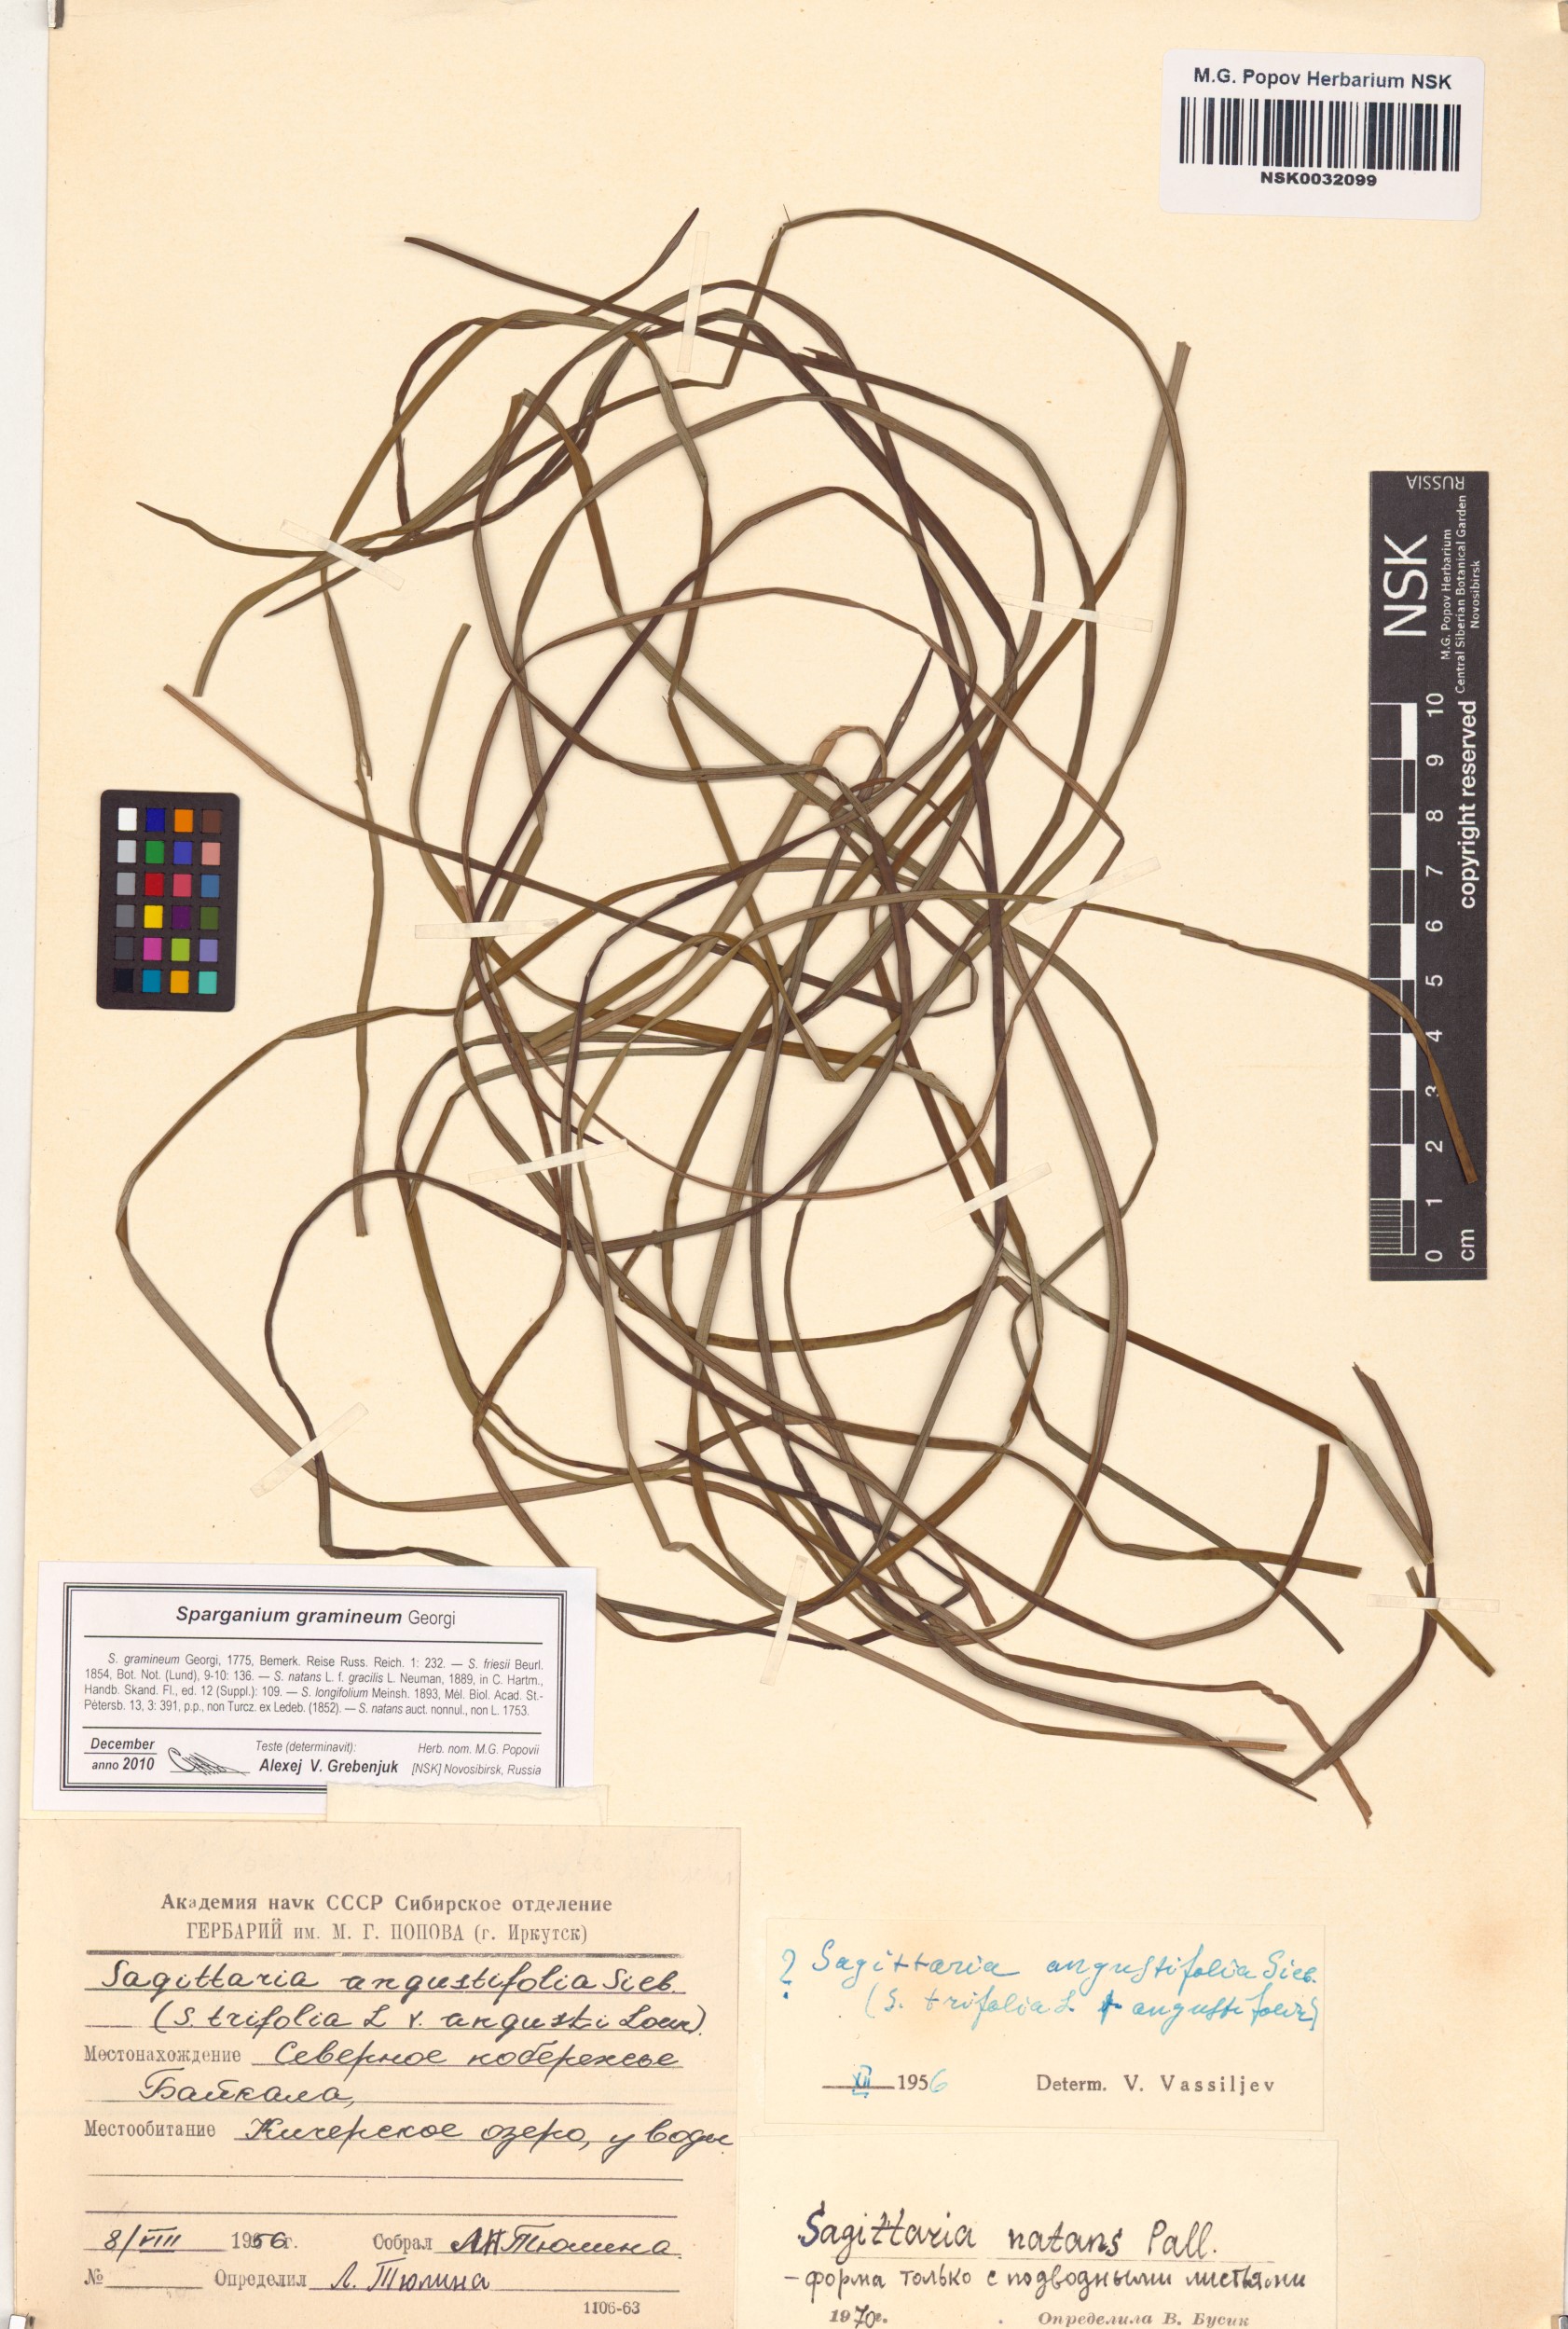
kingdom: Plantae
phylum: Tracheophyta
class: Liliopsida
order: Poales
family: Typhaceae
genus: Sparganium
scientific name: Sparganium gramineum
